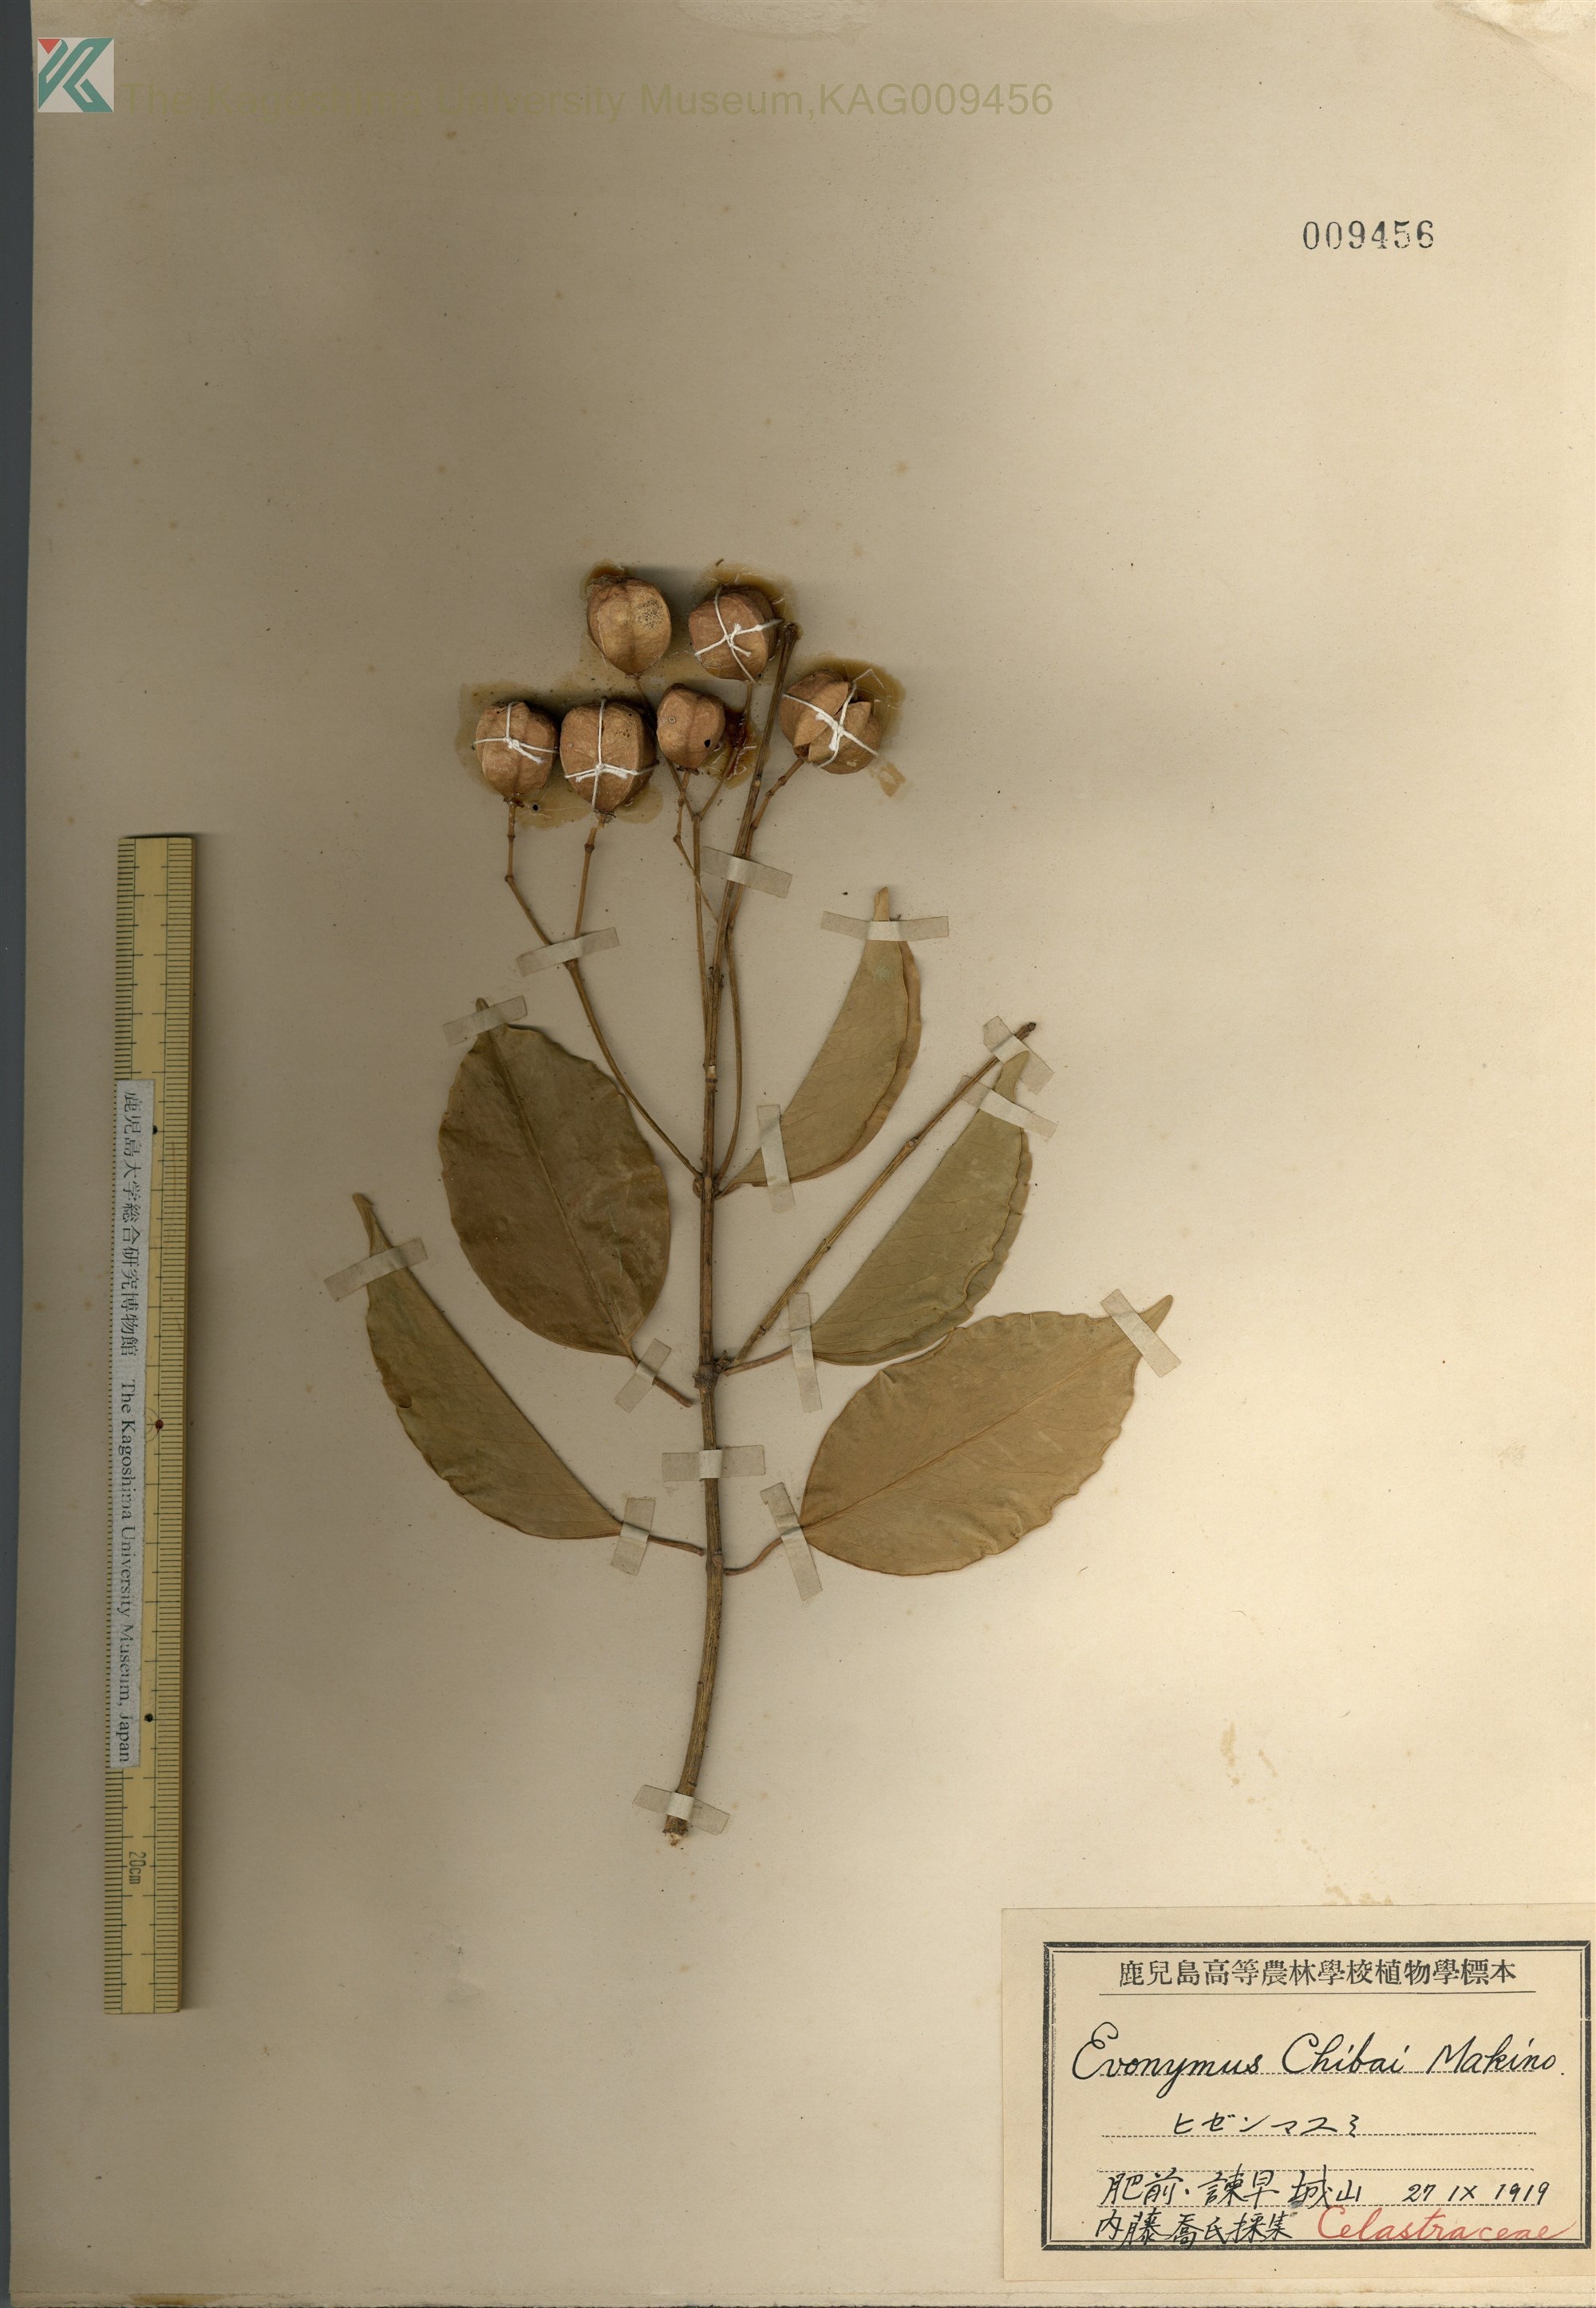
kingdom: Plantae
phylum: Tracheophyta
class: Magnoliopsida
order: Celastrales
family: Celastraceae
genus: Euonymus
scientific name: Euonymus chibae
